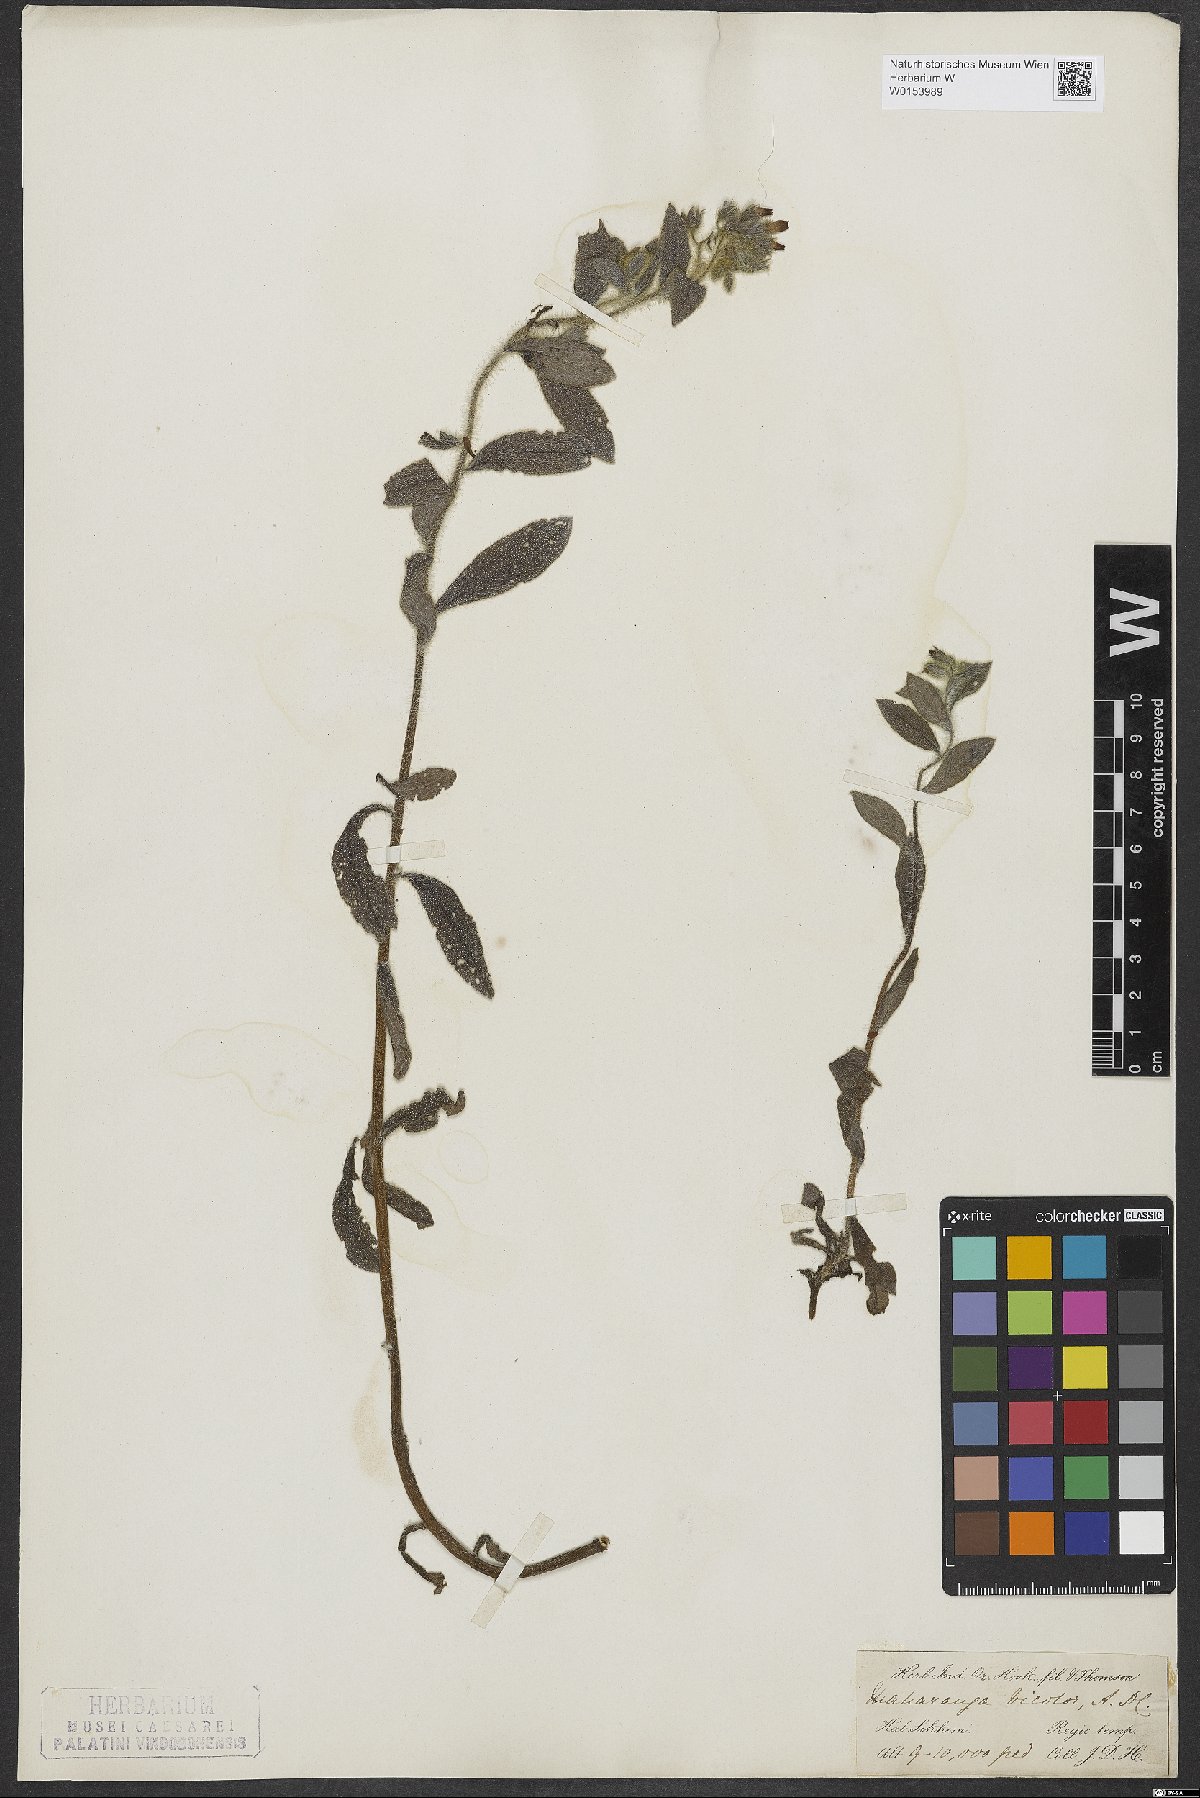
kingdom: Plantae
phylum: Tracheophyta
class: Magnoliopsida
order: Boraginales
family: Boraginaceae
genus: Maharanga
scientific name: Maharanga bicolor
